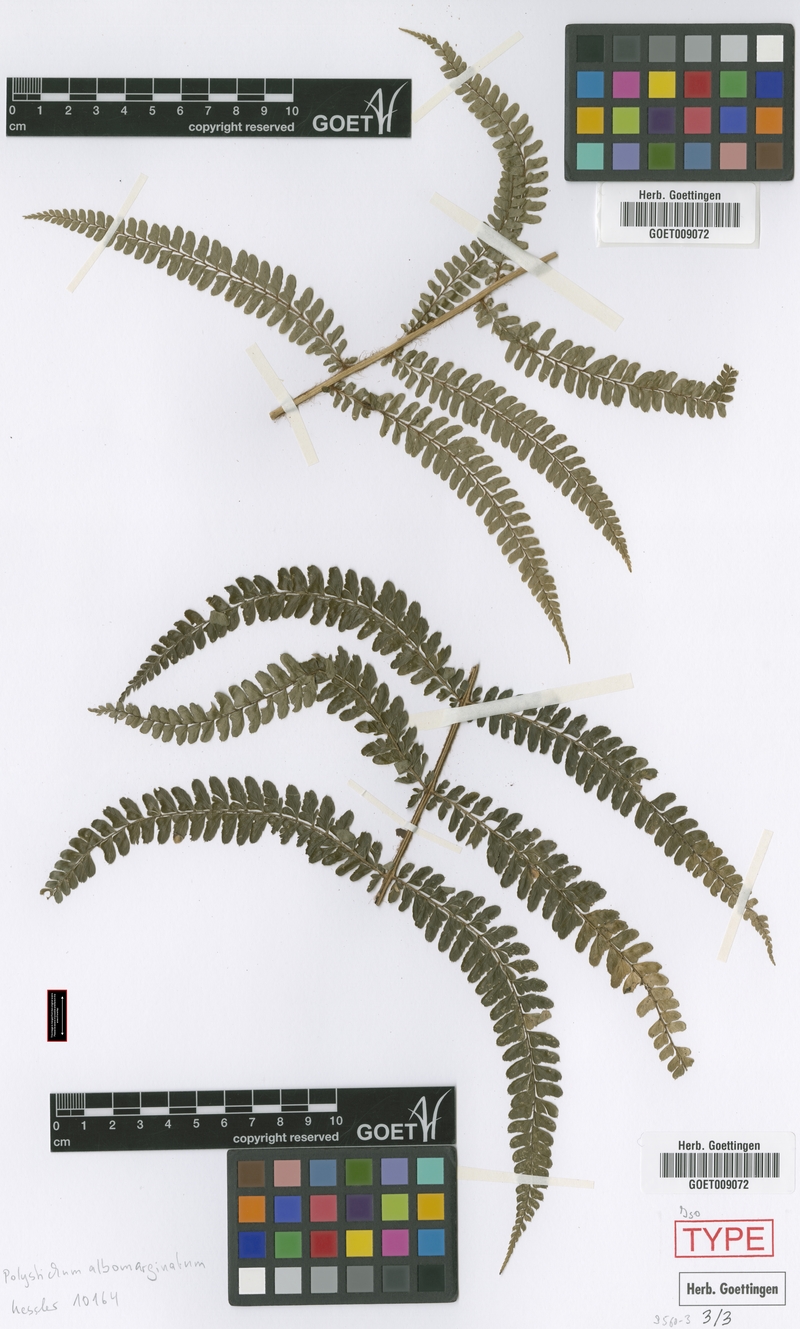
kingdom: Plantae
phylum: Tracheophyta
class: Polypodiopsida
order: Polypodiales
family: Dryopteridaceae
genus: Polystichum
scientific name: Polystichum albomarginatum
